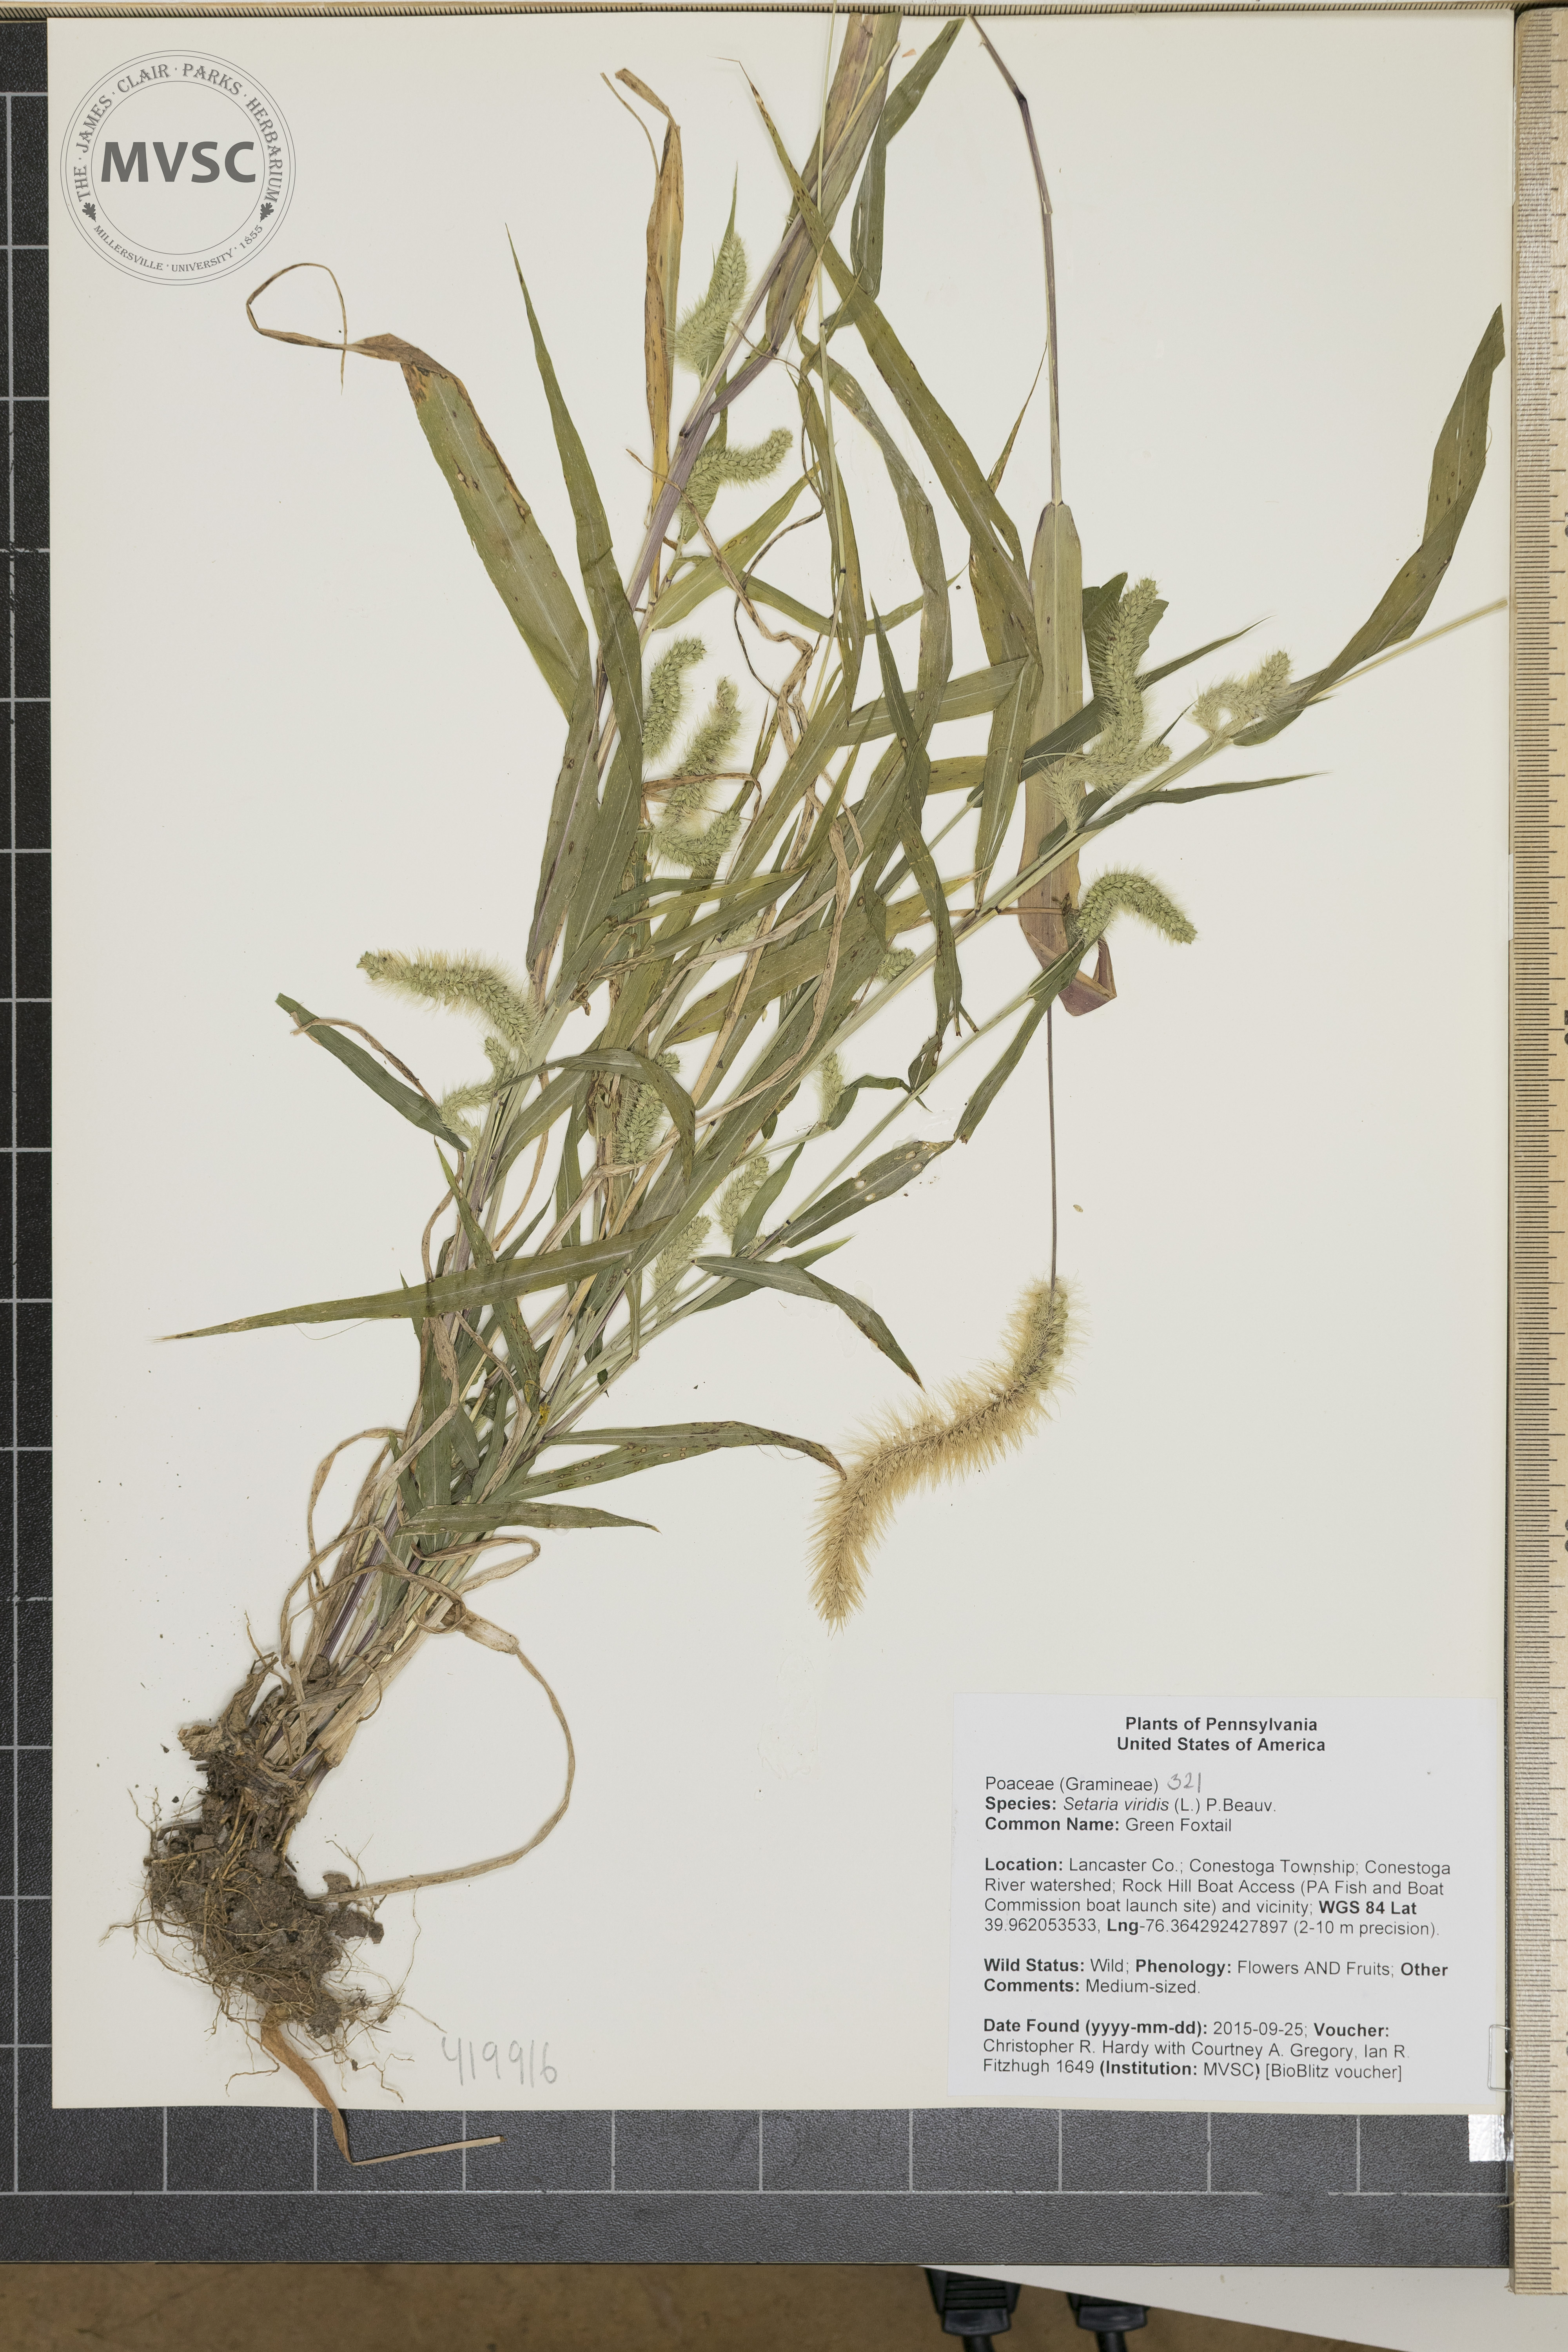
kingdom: Plantae
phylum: Tracheophyta
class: Liliopsida
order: Poales
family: Poaceae
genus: Setaria
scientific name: Setaria viridis
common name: Green Foxtail
